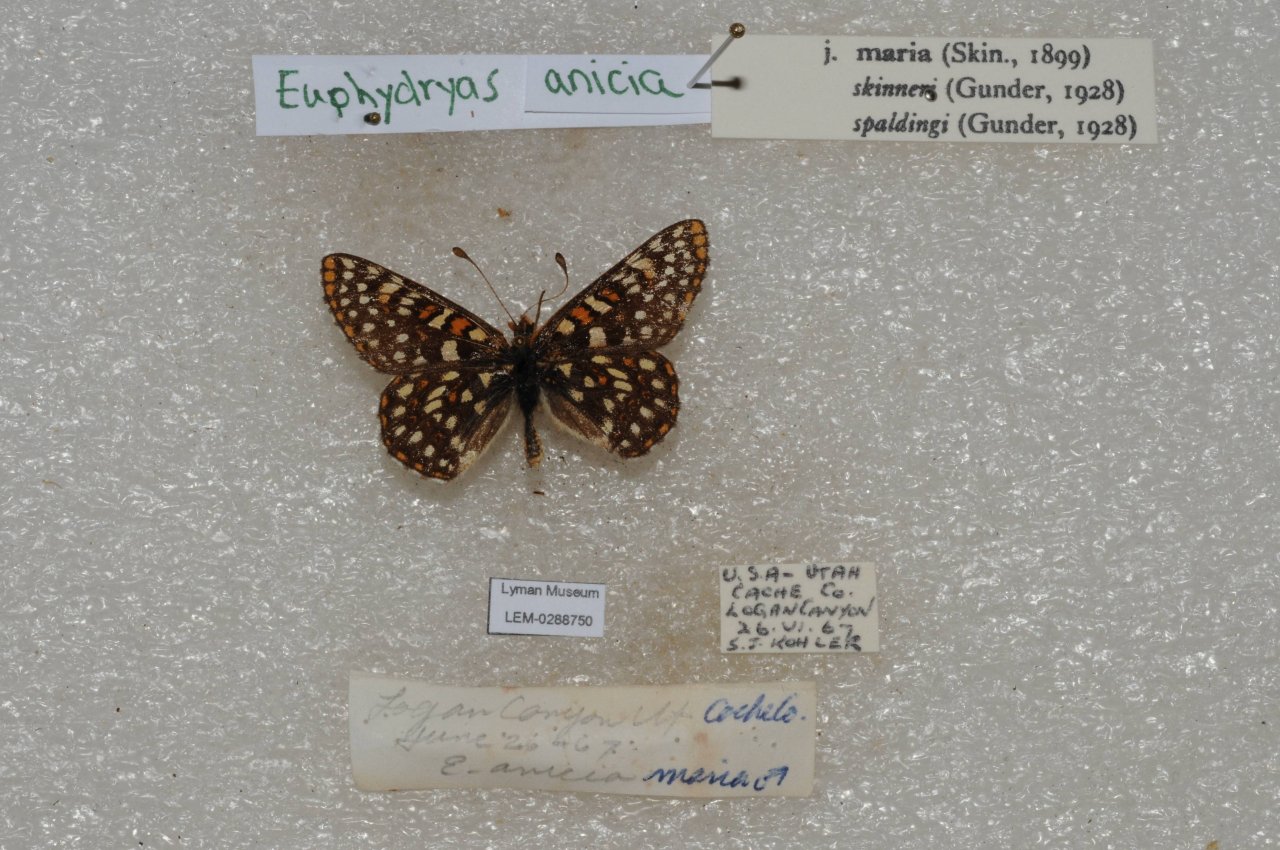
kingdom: Animalia
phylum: Arthropoda
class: Insecta
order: Lepidoptera
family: Nymphalidae
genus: Occidryas
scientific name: Occidryas anicia
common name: Anicia Checkerspot
